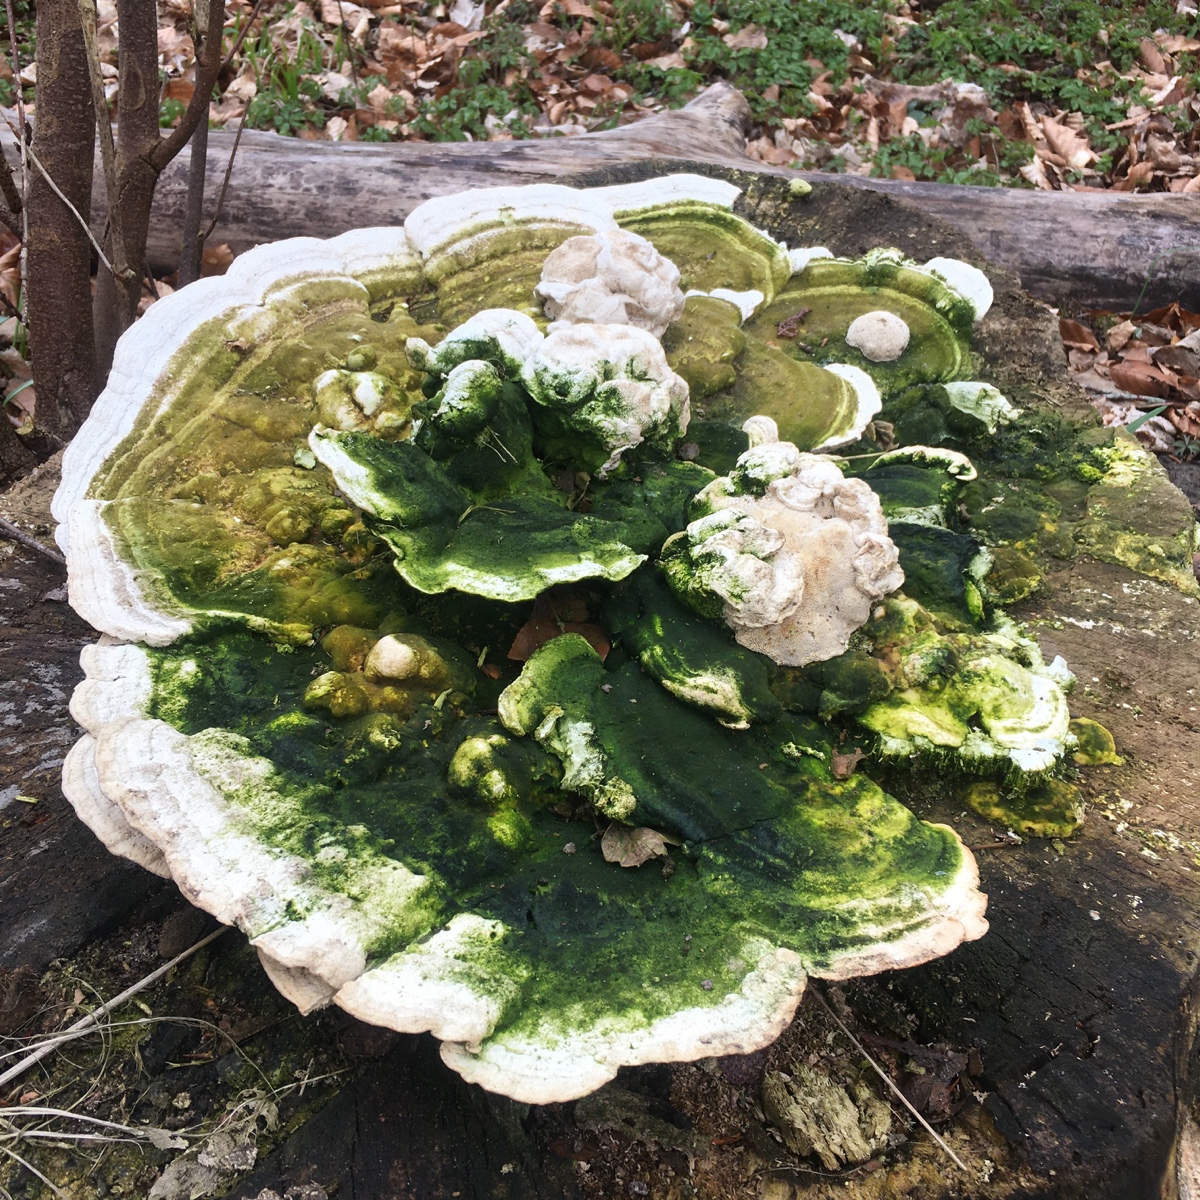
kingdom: Fungi
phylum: Basidiomycota
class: Agaricomycetes
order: Polyporales
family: Polyporaceae
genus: Trametes
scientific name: Trametes gibbosa
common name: puklet læderporesvamp
